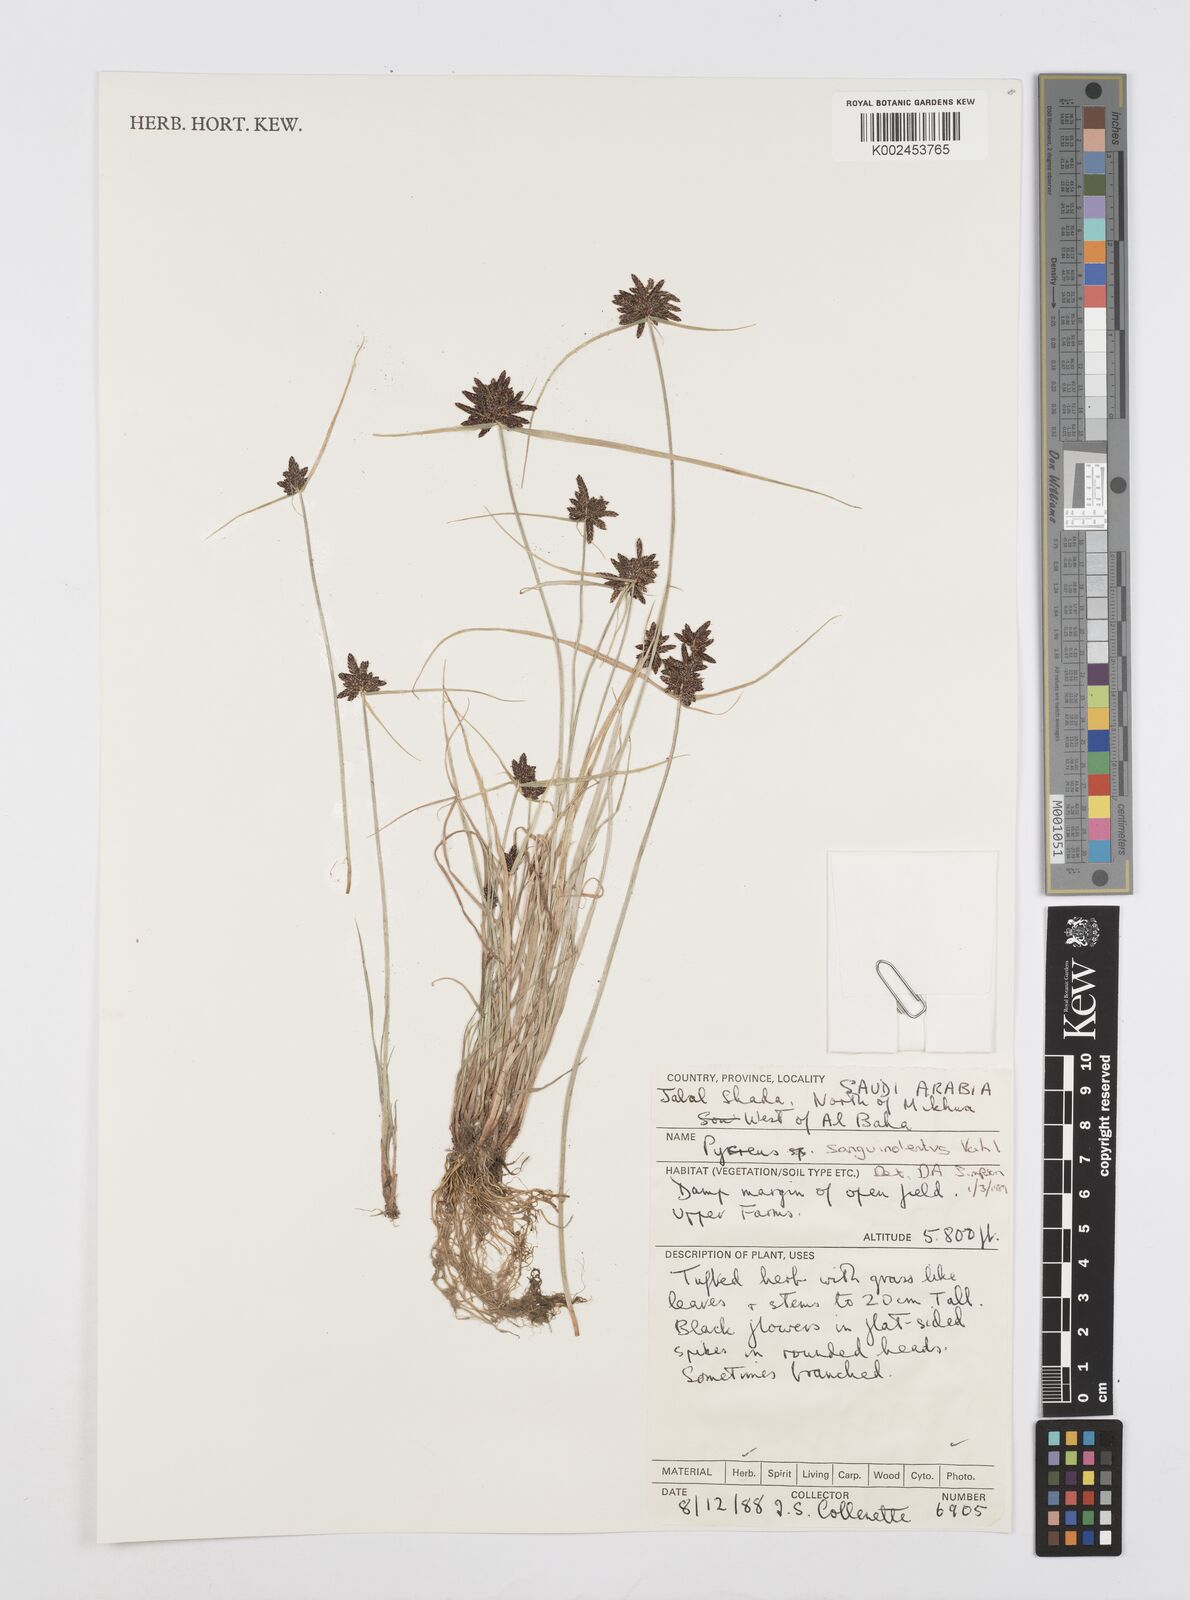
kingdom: Plantae
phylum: Tracheophyta
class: Liliopsida
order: Poales
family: Cyperaceae
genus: Cyperus
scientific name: Cyperus sanguinolentus
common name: Purpleglume flatsedge
